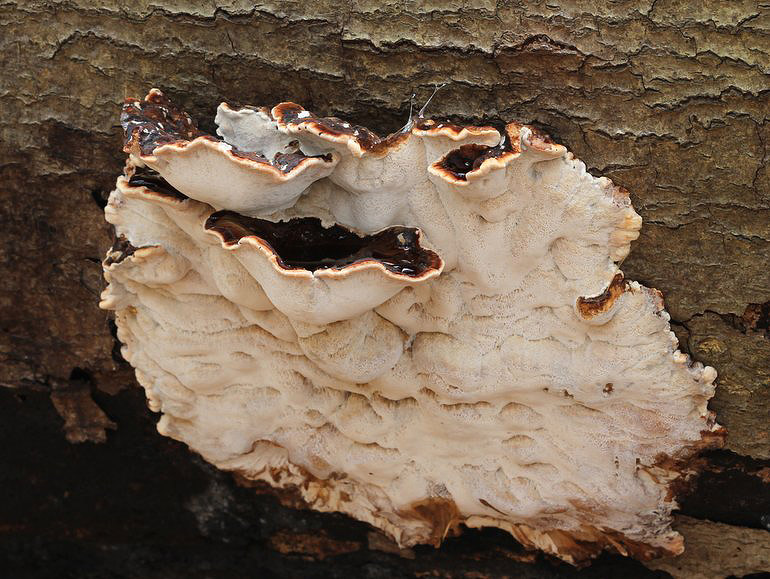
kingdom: Fungi
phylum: Basidiomycota
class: Agaricomycetes
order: Polyporales
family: Ischnodermataceae
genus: Ischnoderma
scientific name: Ischnoderma resinosum
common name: løv-tjæreporesvamp
